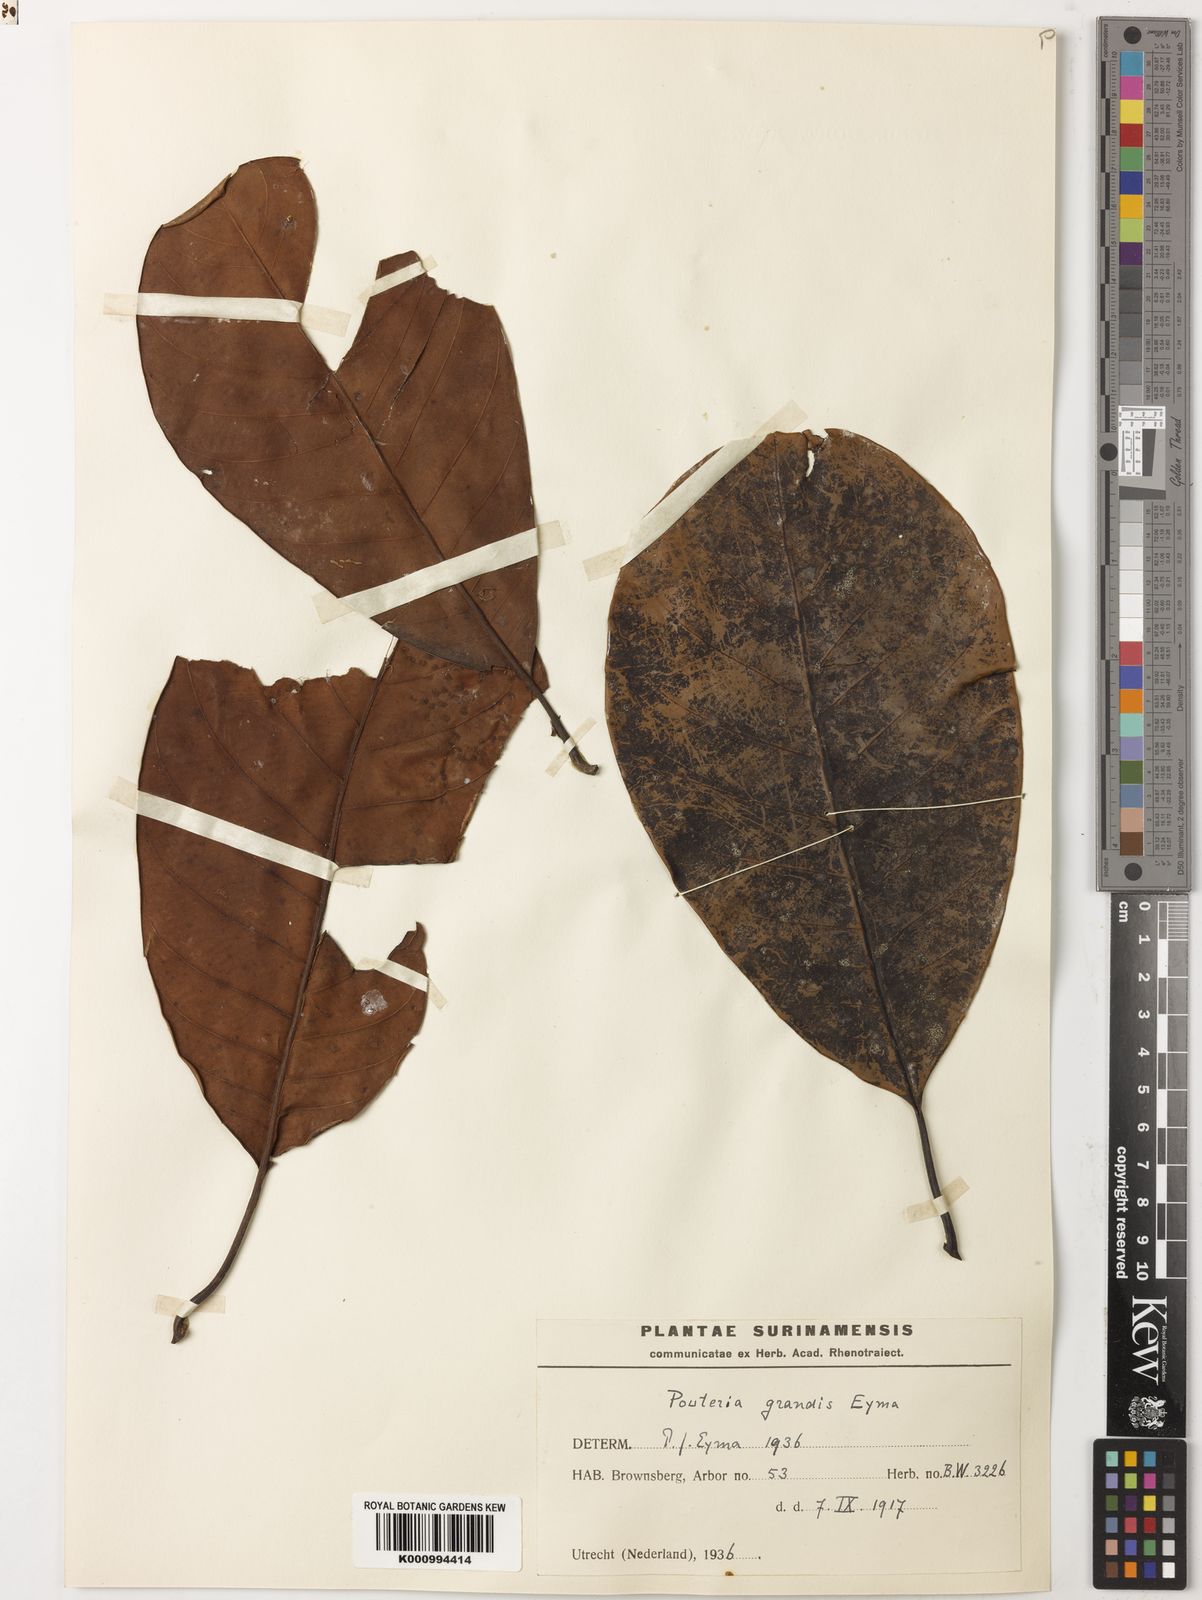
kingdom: Plantae
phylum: Tracheophyta
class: Magnoliopsida
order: Ericales
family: Sapotaceae
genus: Pouteria
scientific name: Pouteria grandis
